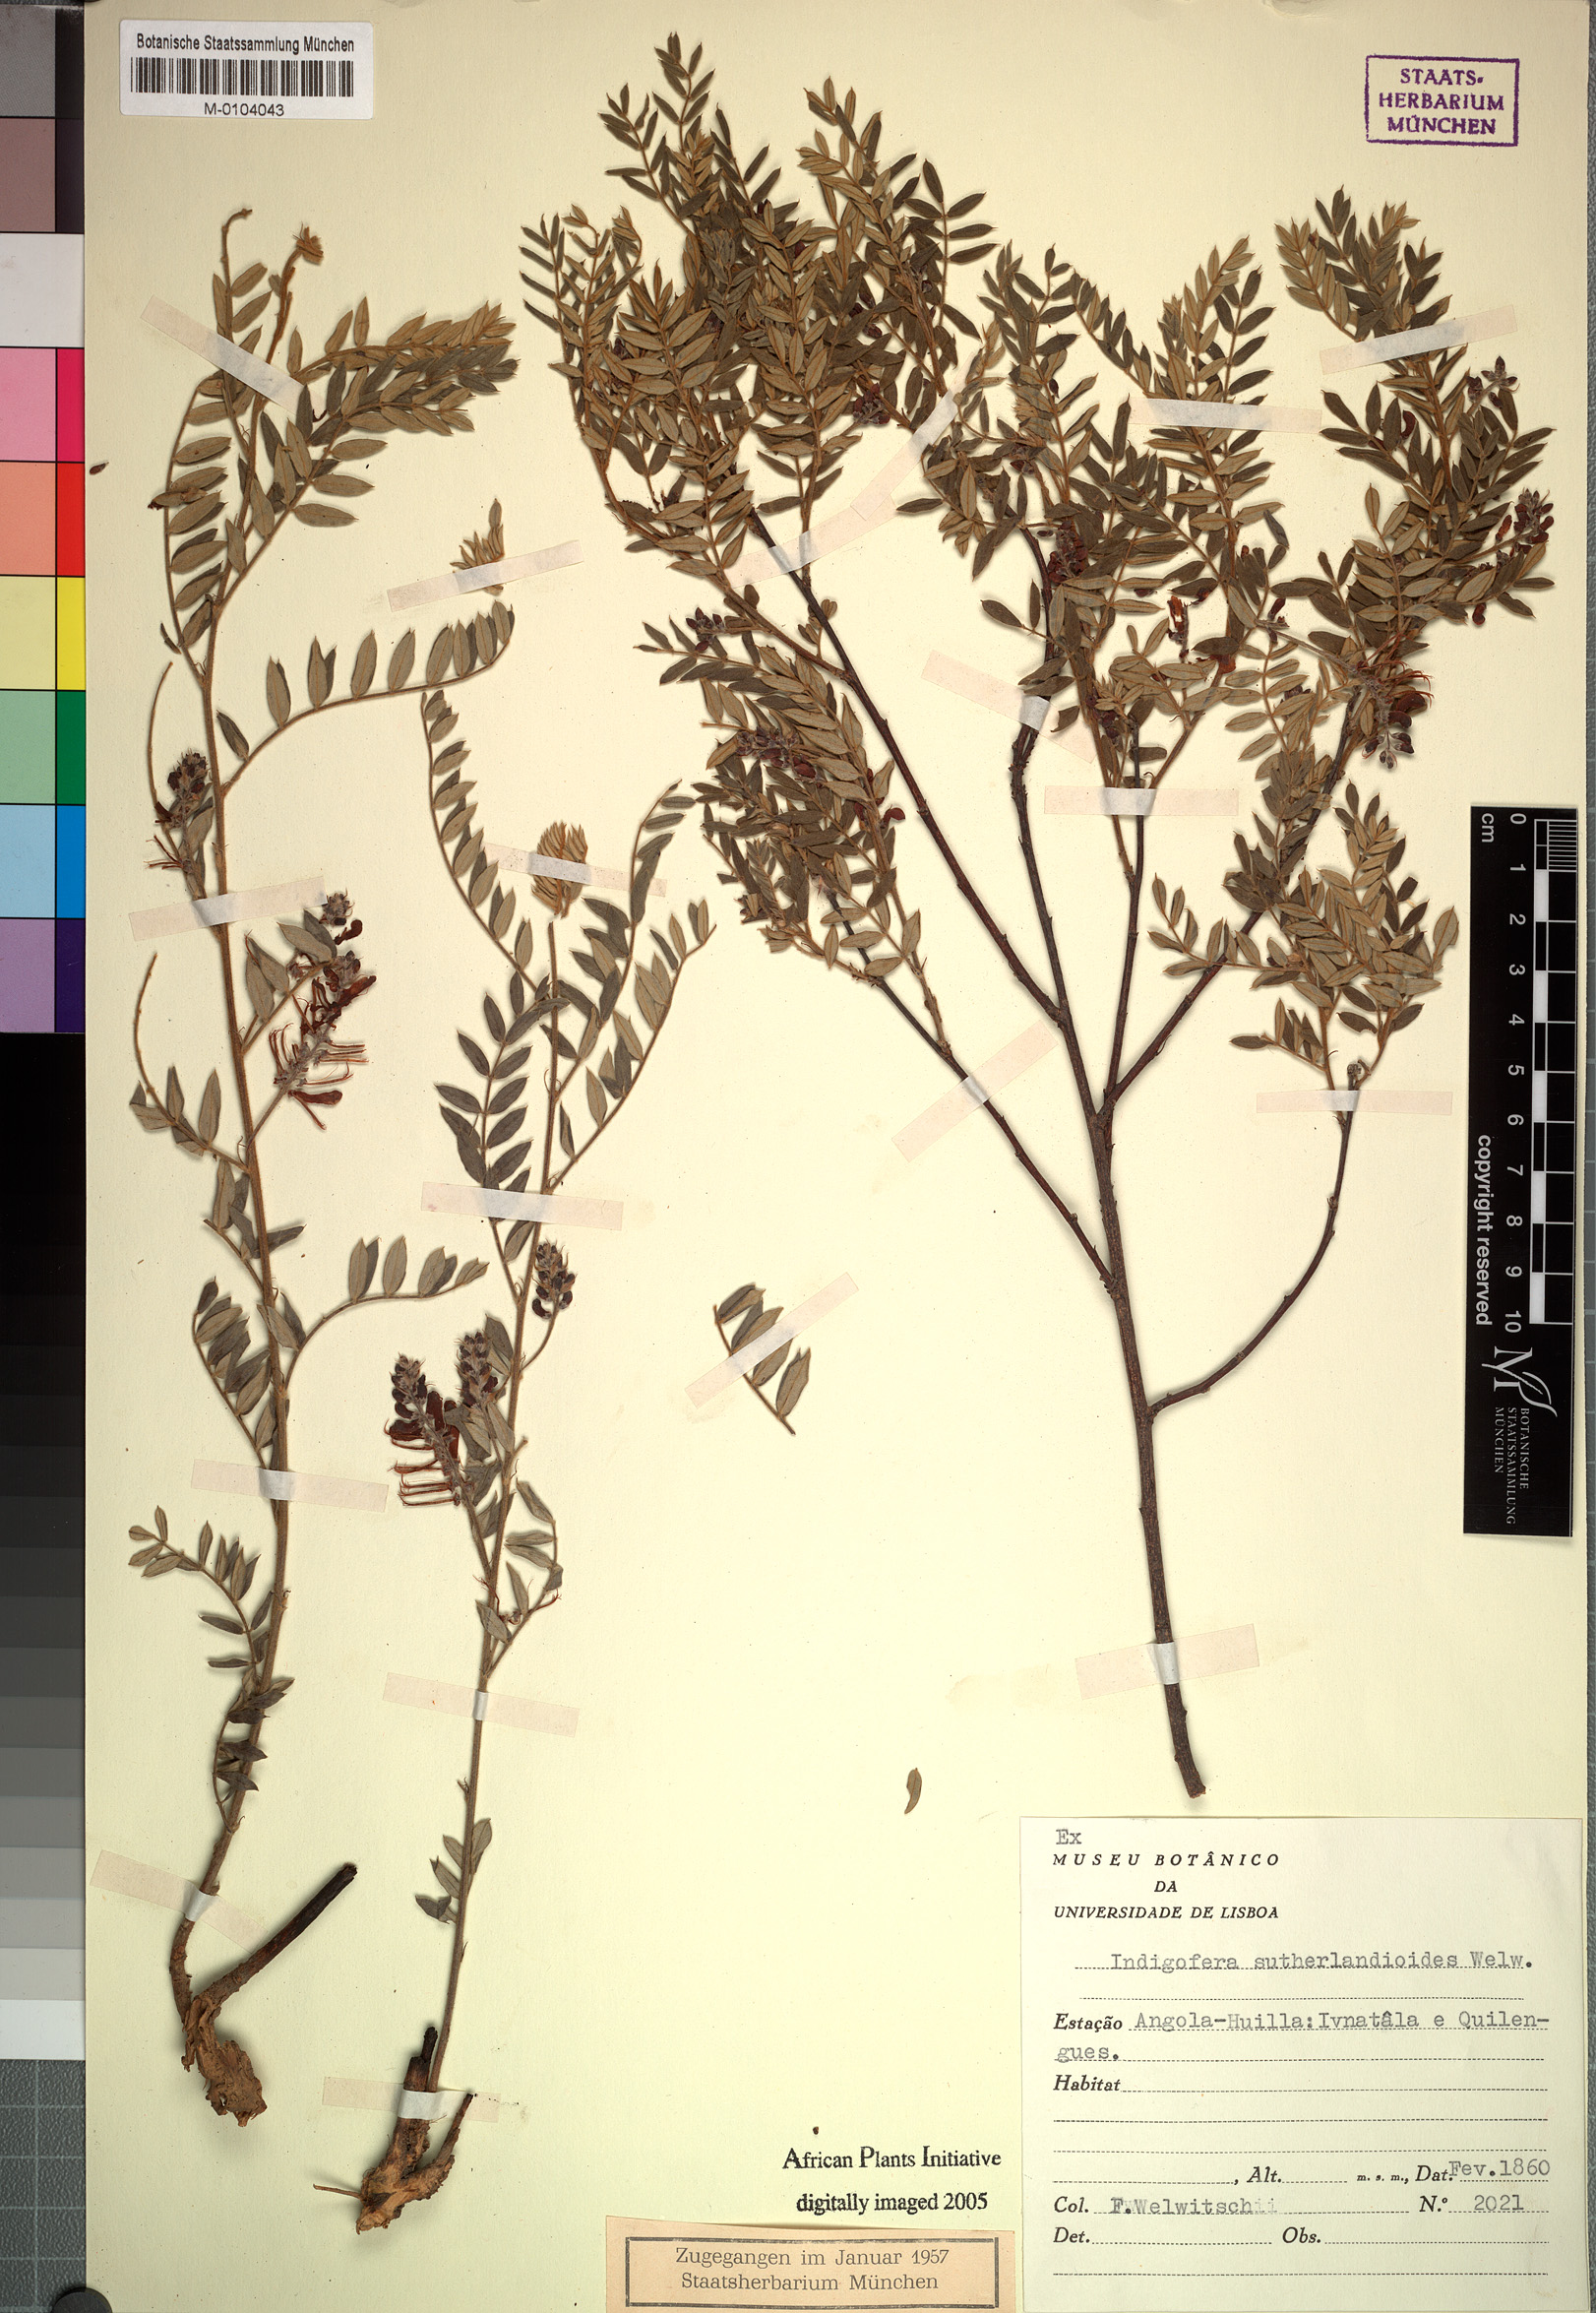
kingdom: Plantae
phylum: Tracheophyta
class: Magnoliopsida
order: Fabales
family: Fabaceae
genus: Indigofera
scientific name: Indigofera sutherlandioides
